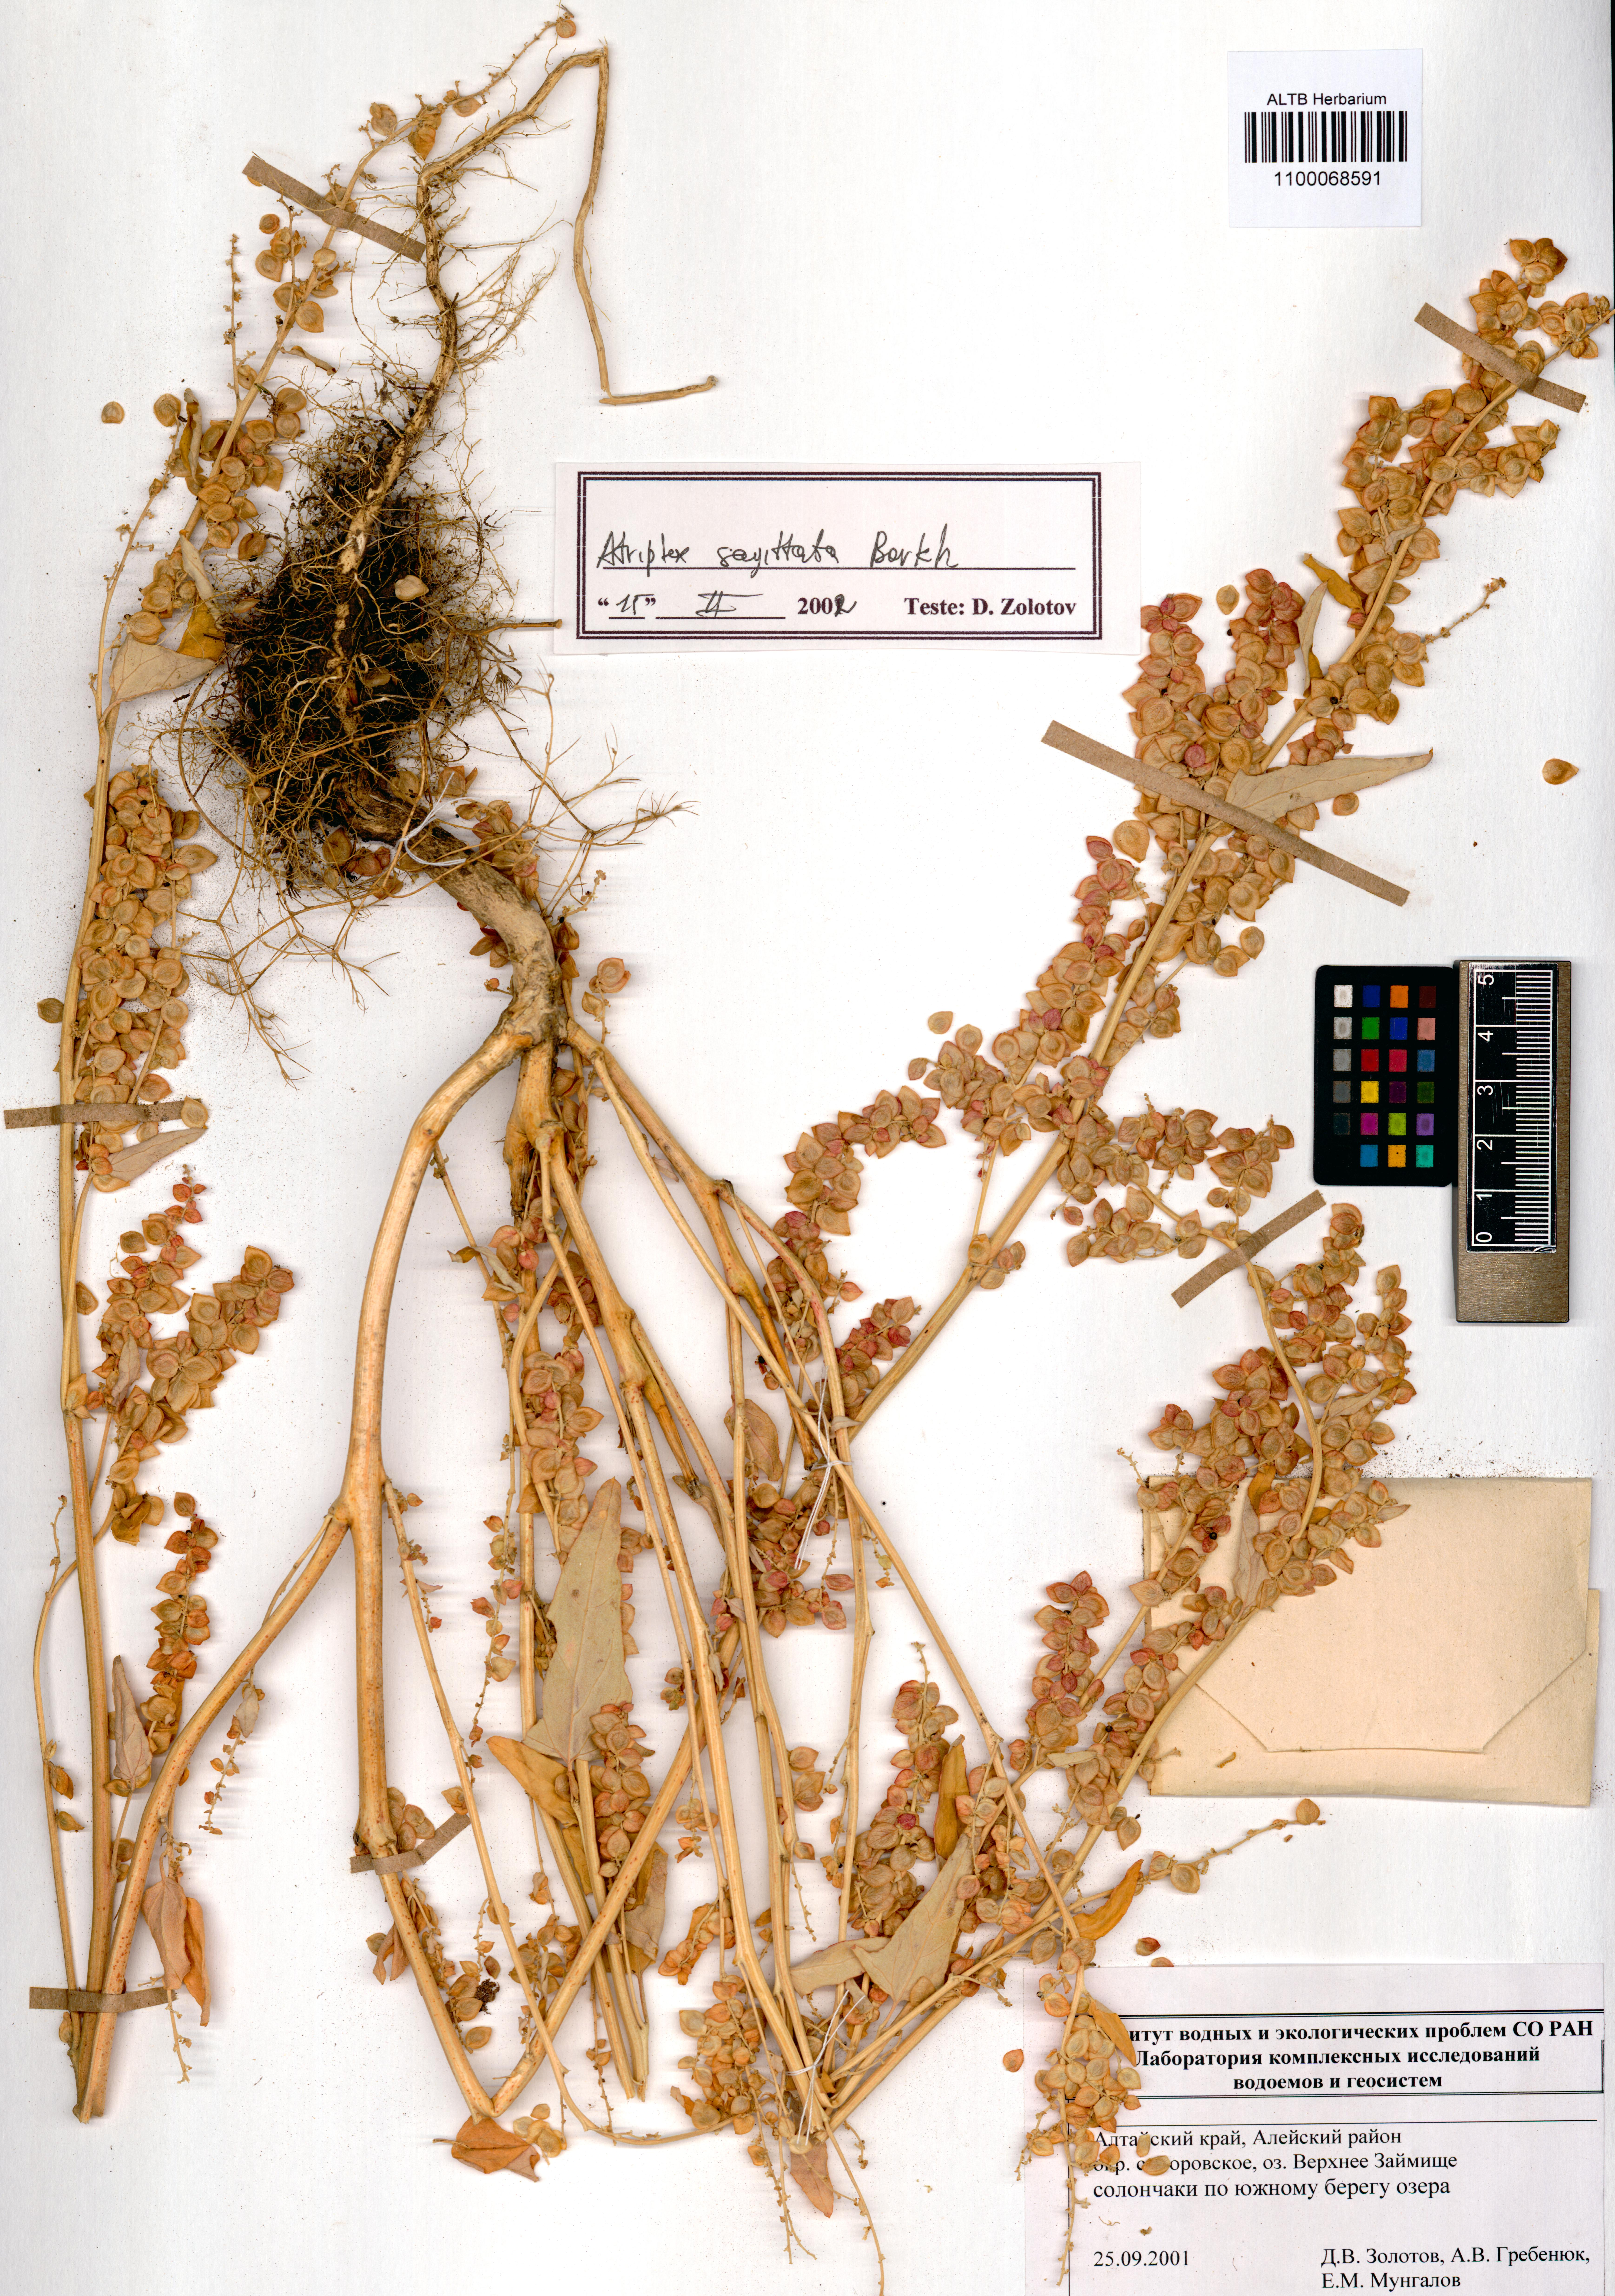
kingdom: Plantae
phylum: Tracheophyta
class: Magnoliopsida
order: Caryophyllales
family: Amaranthaceae
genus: Atriplex
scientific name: Atriplex sagittata
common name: Purple orache
